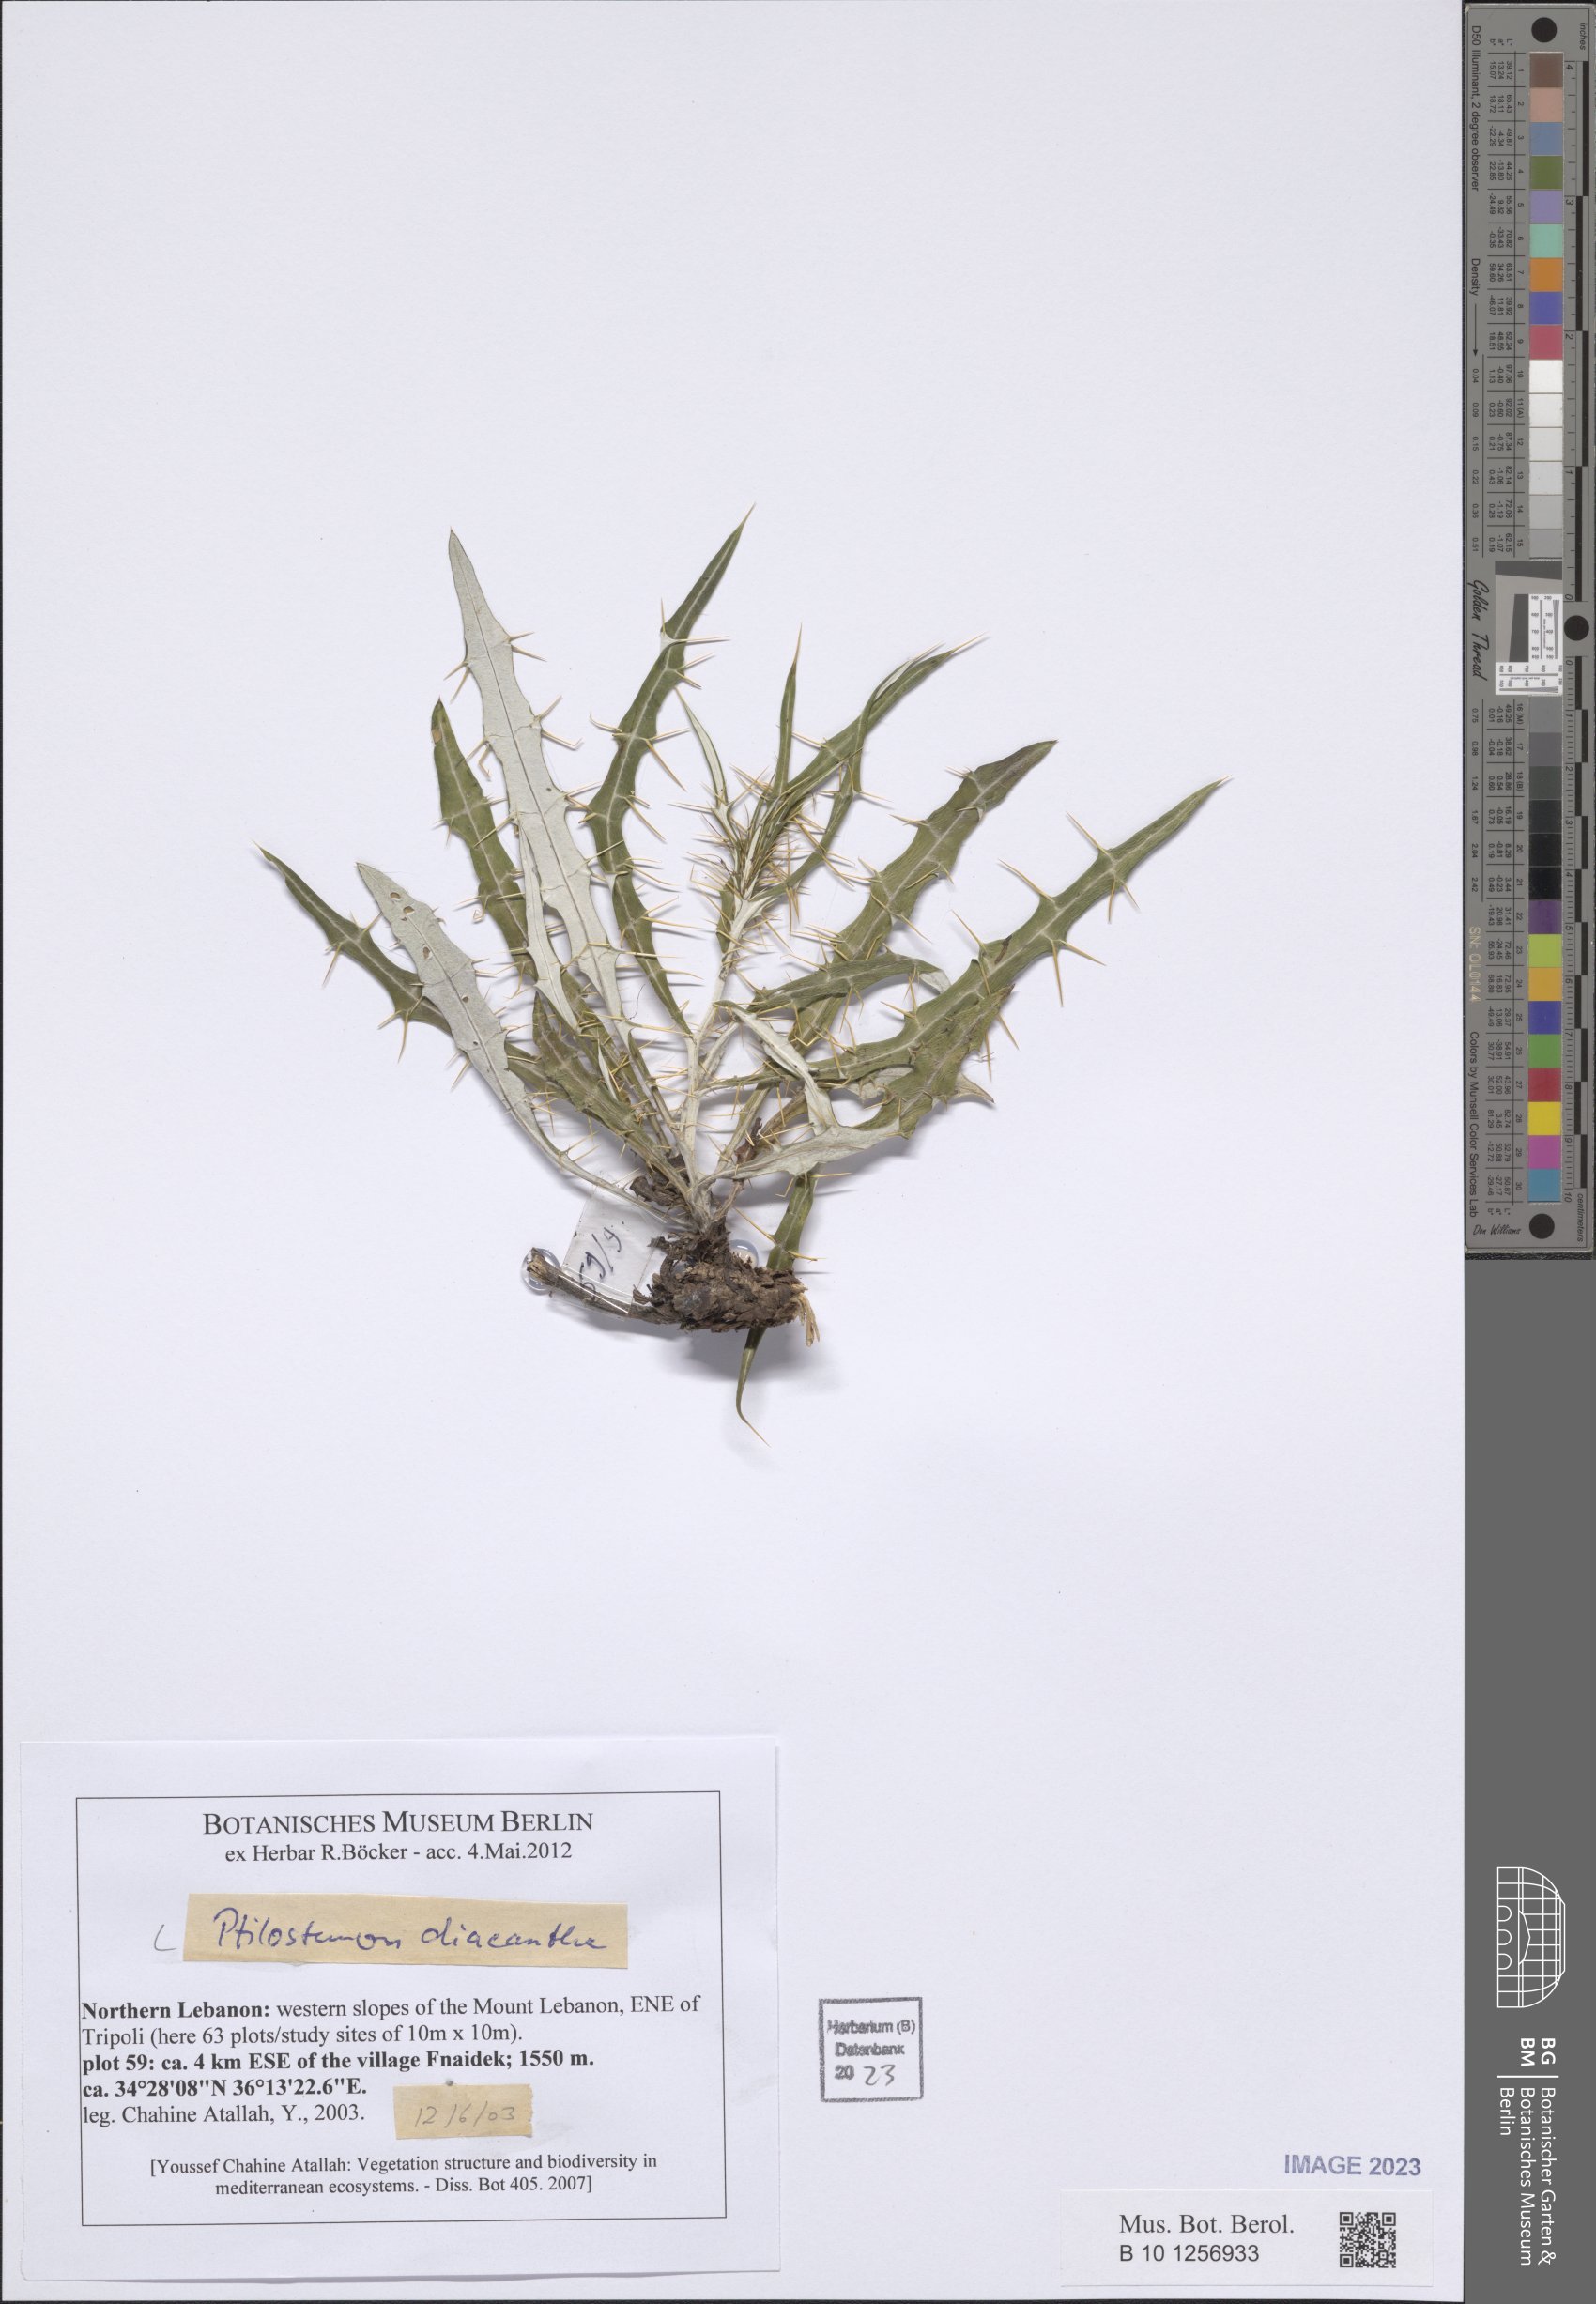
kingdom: Plantae
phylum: Tracheophyta
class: Magnoliopsida
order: Asterales
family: Asteraceae
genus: Ptilostemon
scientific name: Ptilostemon diacanthus
